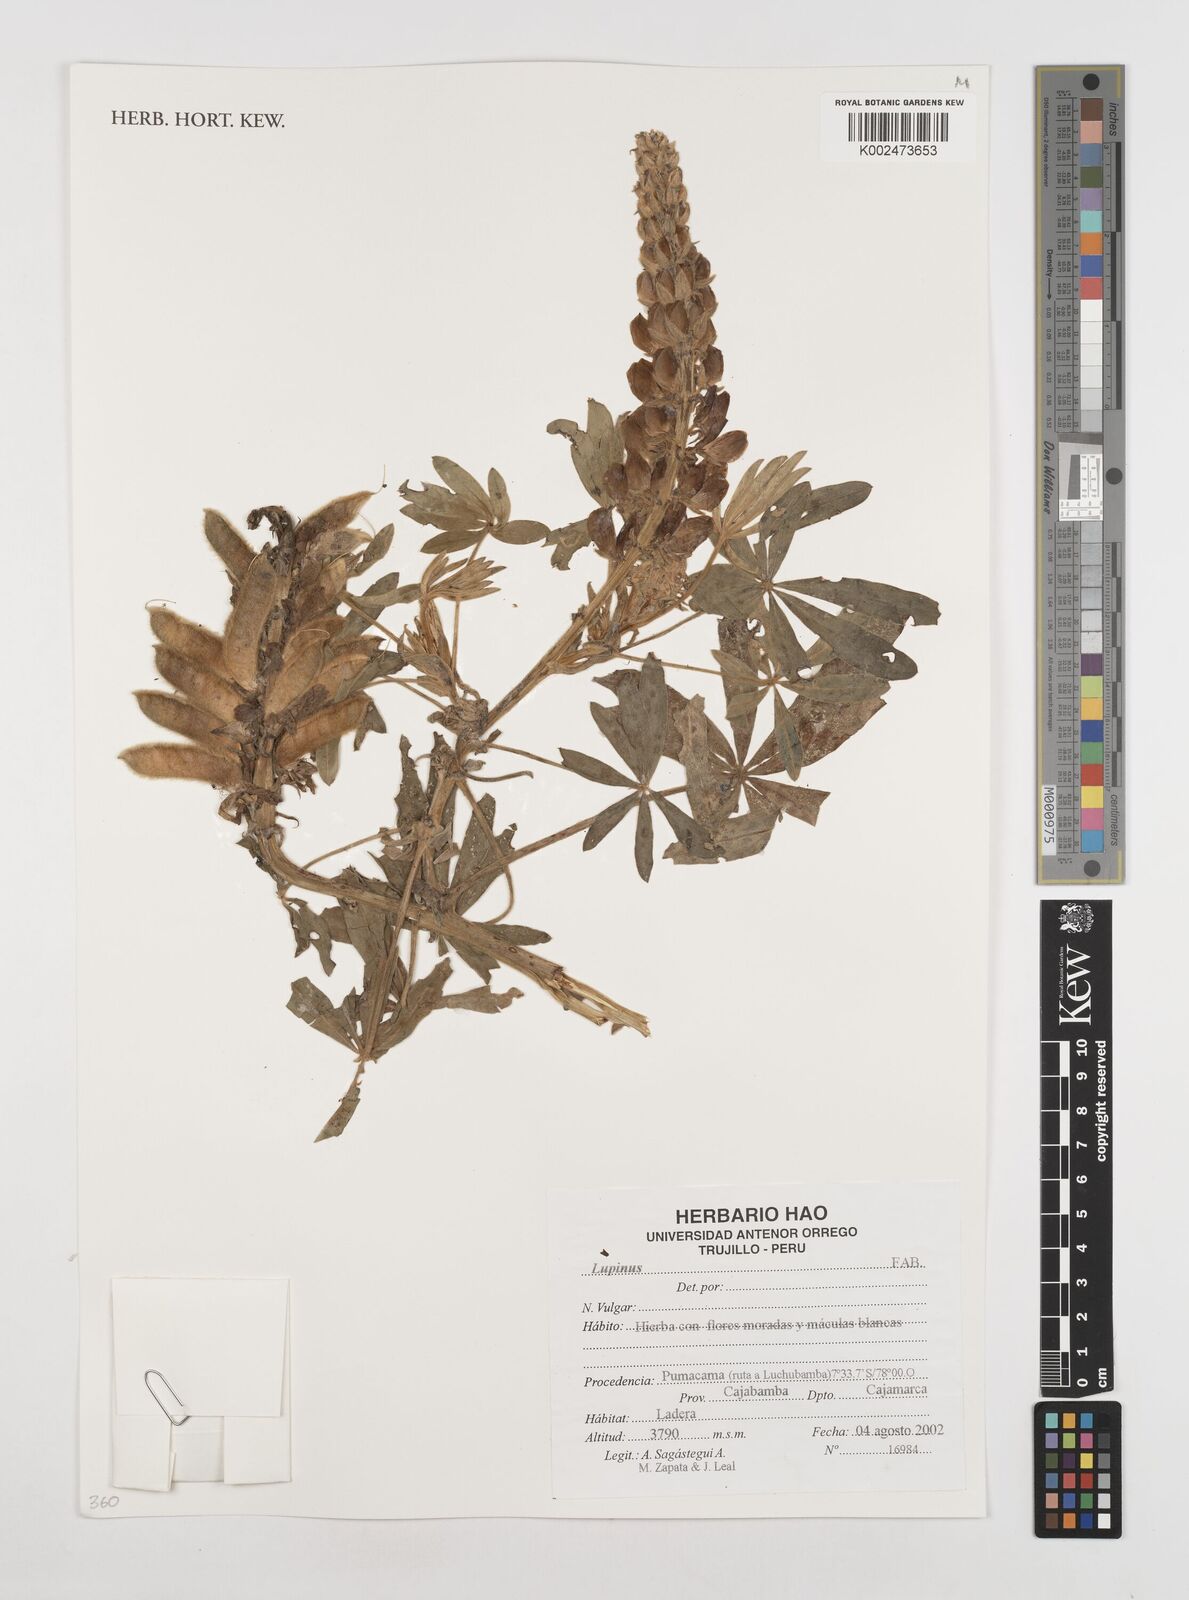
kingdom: Plantae
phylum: Tracheophyta
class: Magnoliopsida
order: Fabales
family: Fabaceae
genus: Lupinus
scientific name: Lupinus
